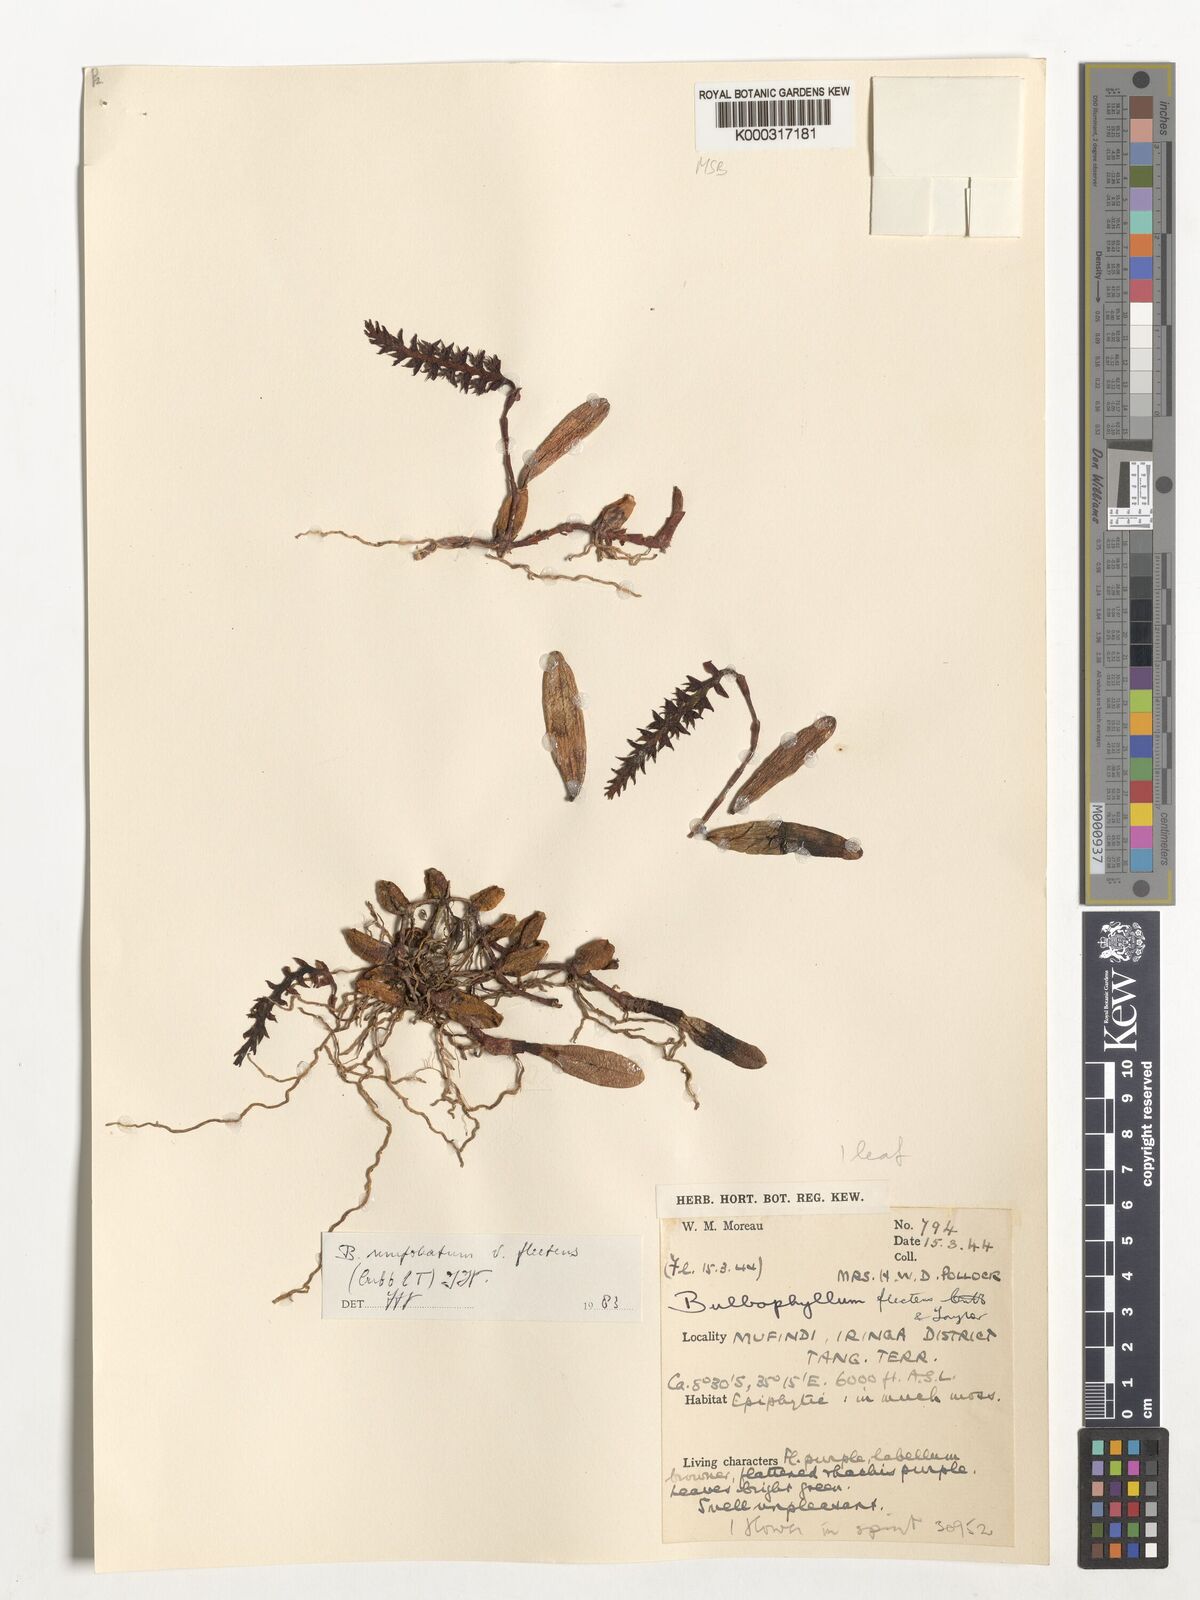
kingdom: Plantae
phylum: Tracheophyta
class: Liliopsida
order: Asparagales
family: Orchidaceae
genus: Bulbophyllum
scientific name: Bulbophyllum unifoliatum
